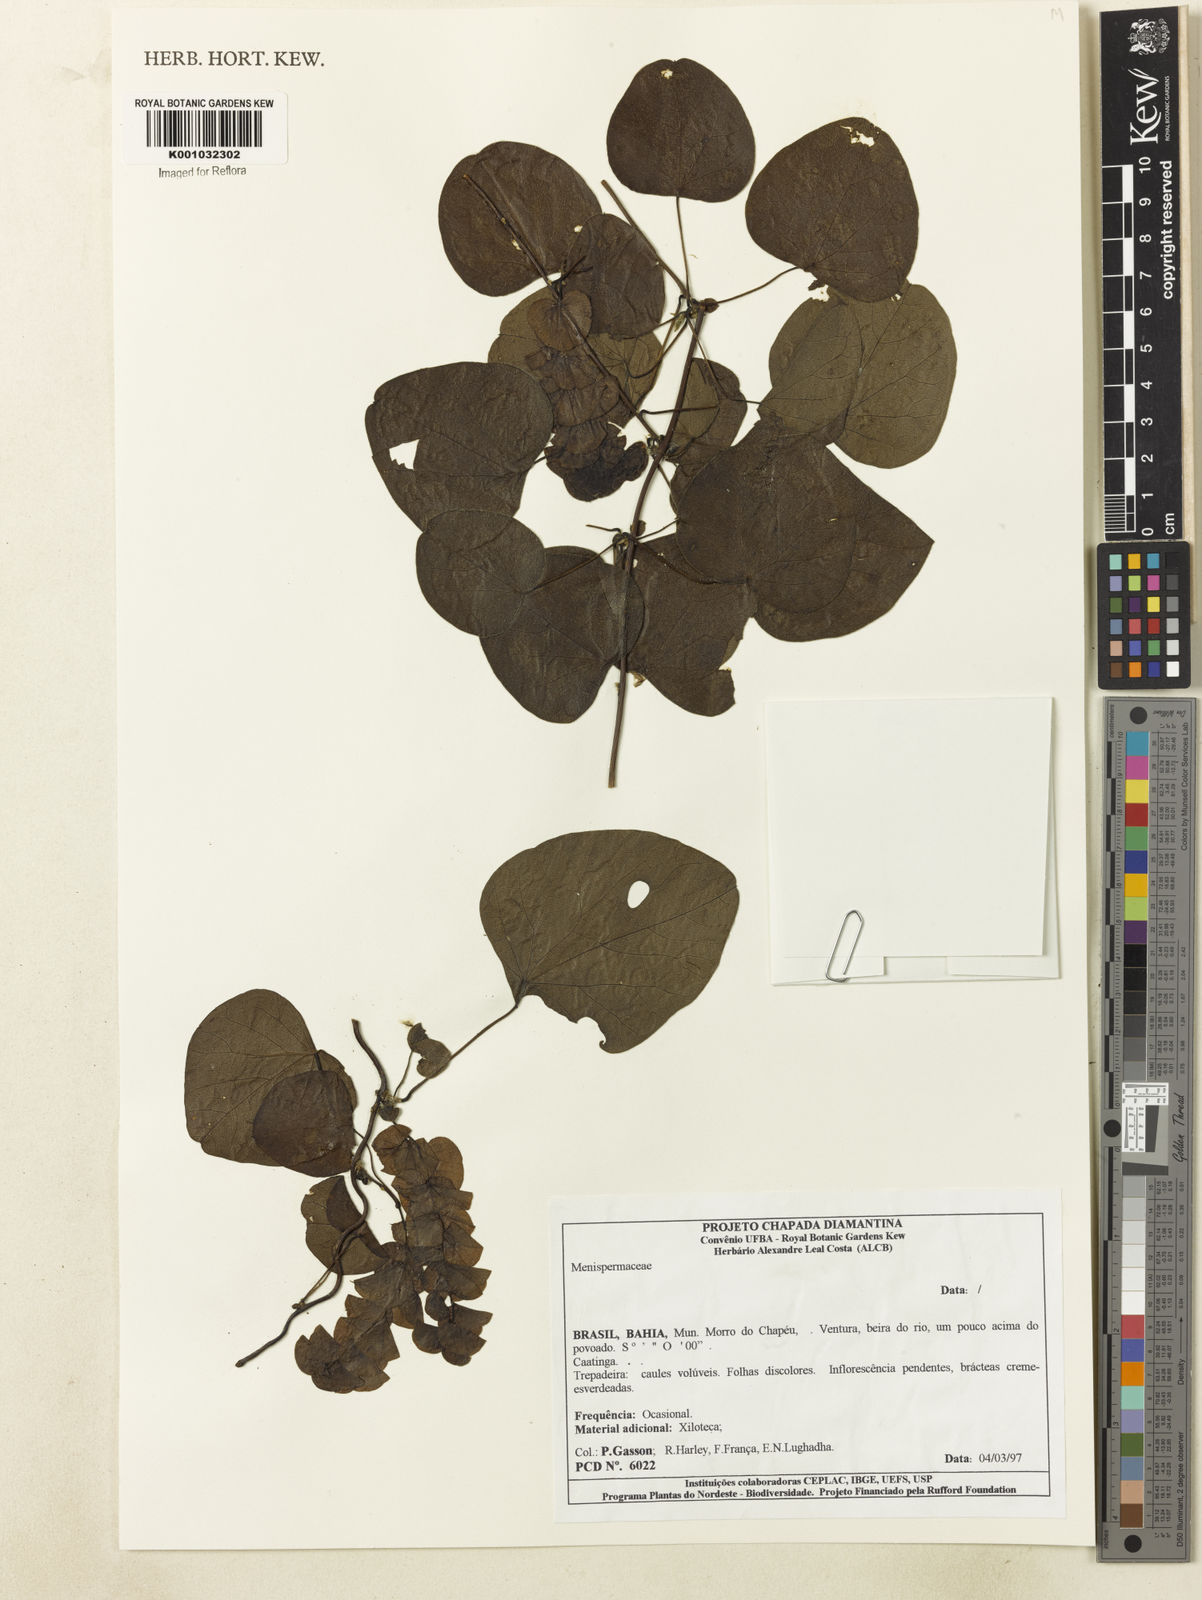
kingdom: Plantae
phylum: Tracheophyta
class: Magnoliopsida
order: Ranunculales
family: Menispermaceae
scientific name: Menispermaceae
